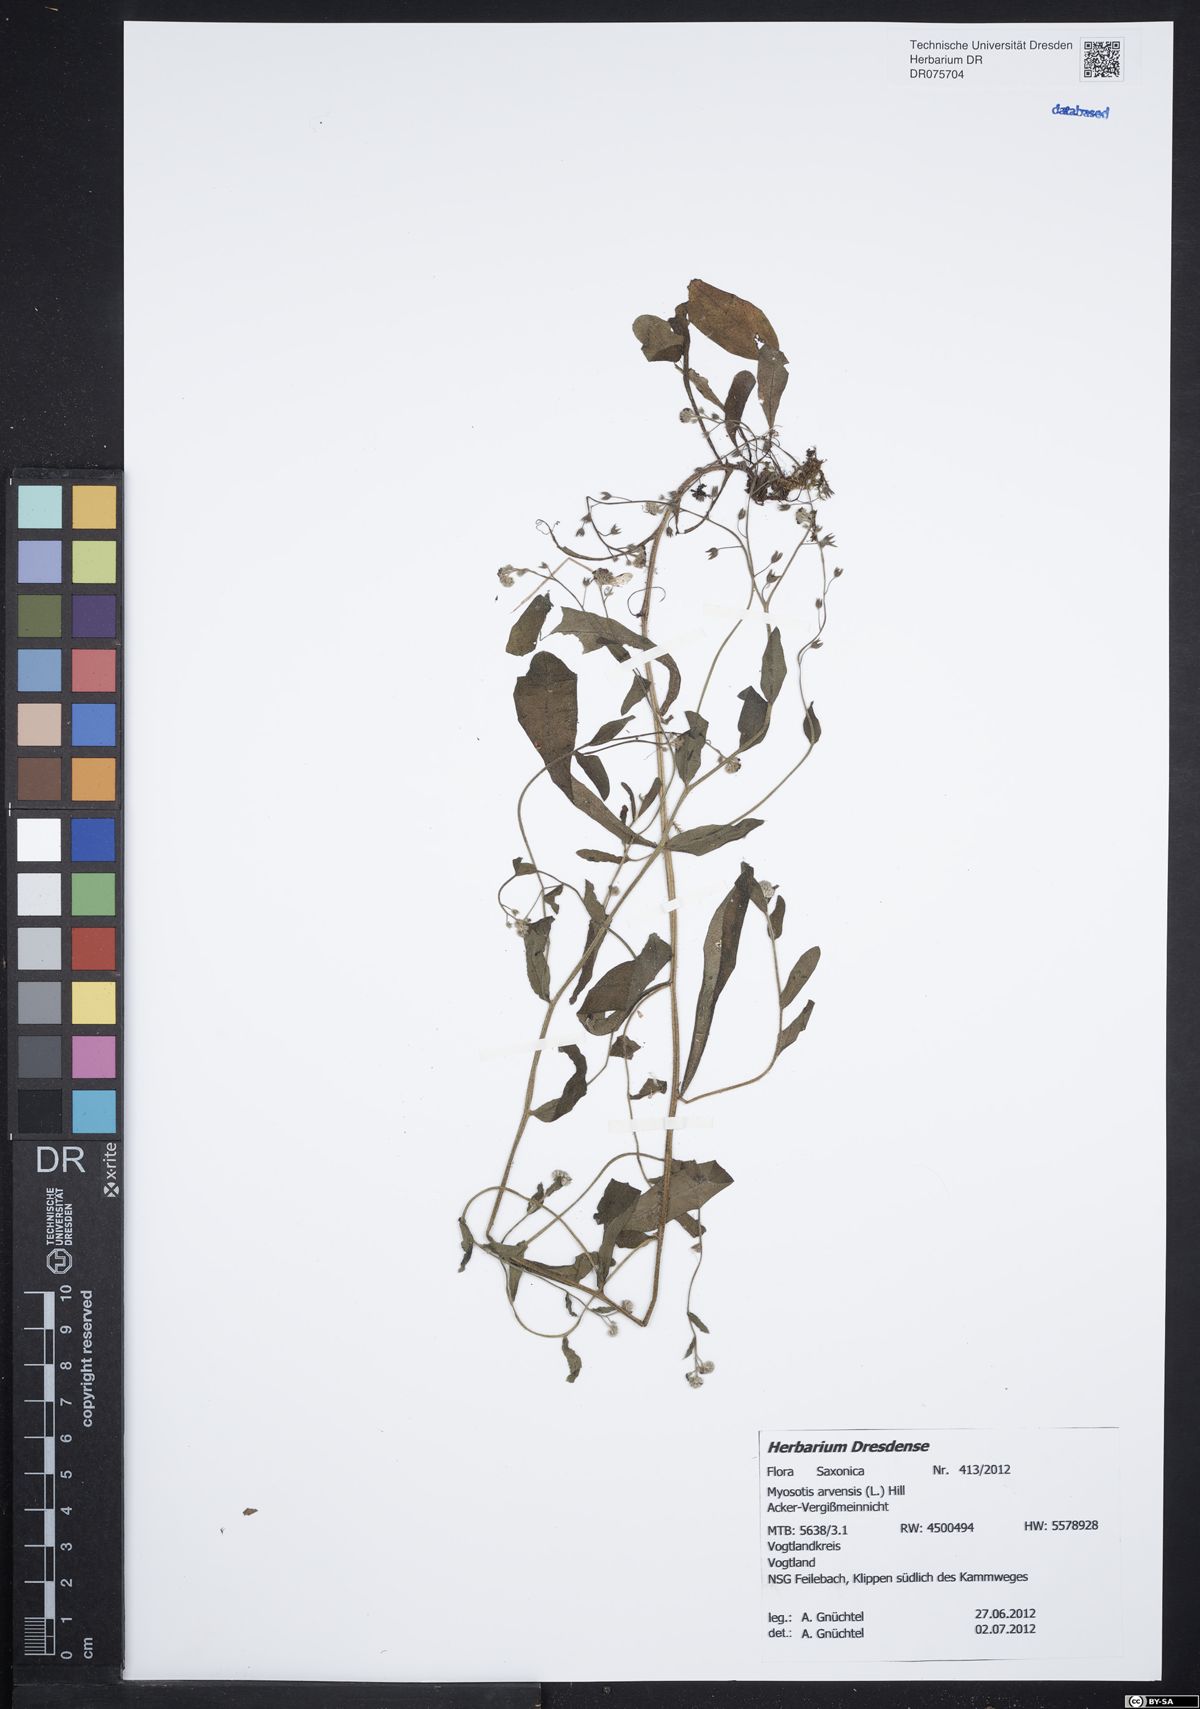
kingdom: Plantae
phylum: Tracheophyta
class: Magnoliopsida
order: Boraginales
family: Boraginaceae
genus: Myosotis
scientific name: Myosotis arvensis
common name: Field forget-me-not
